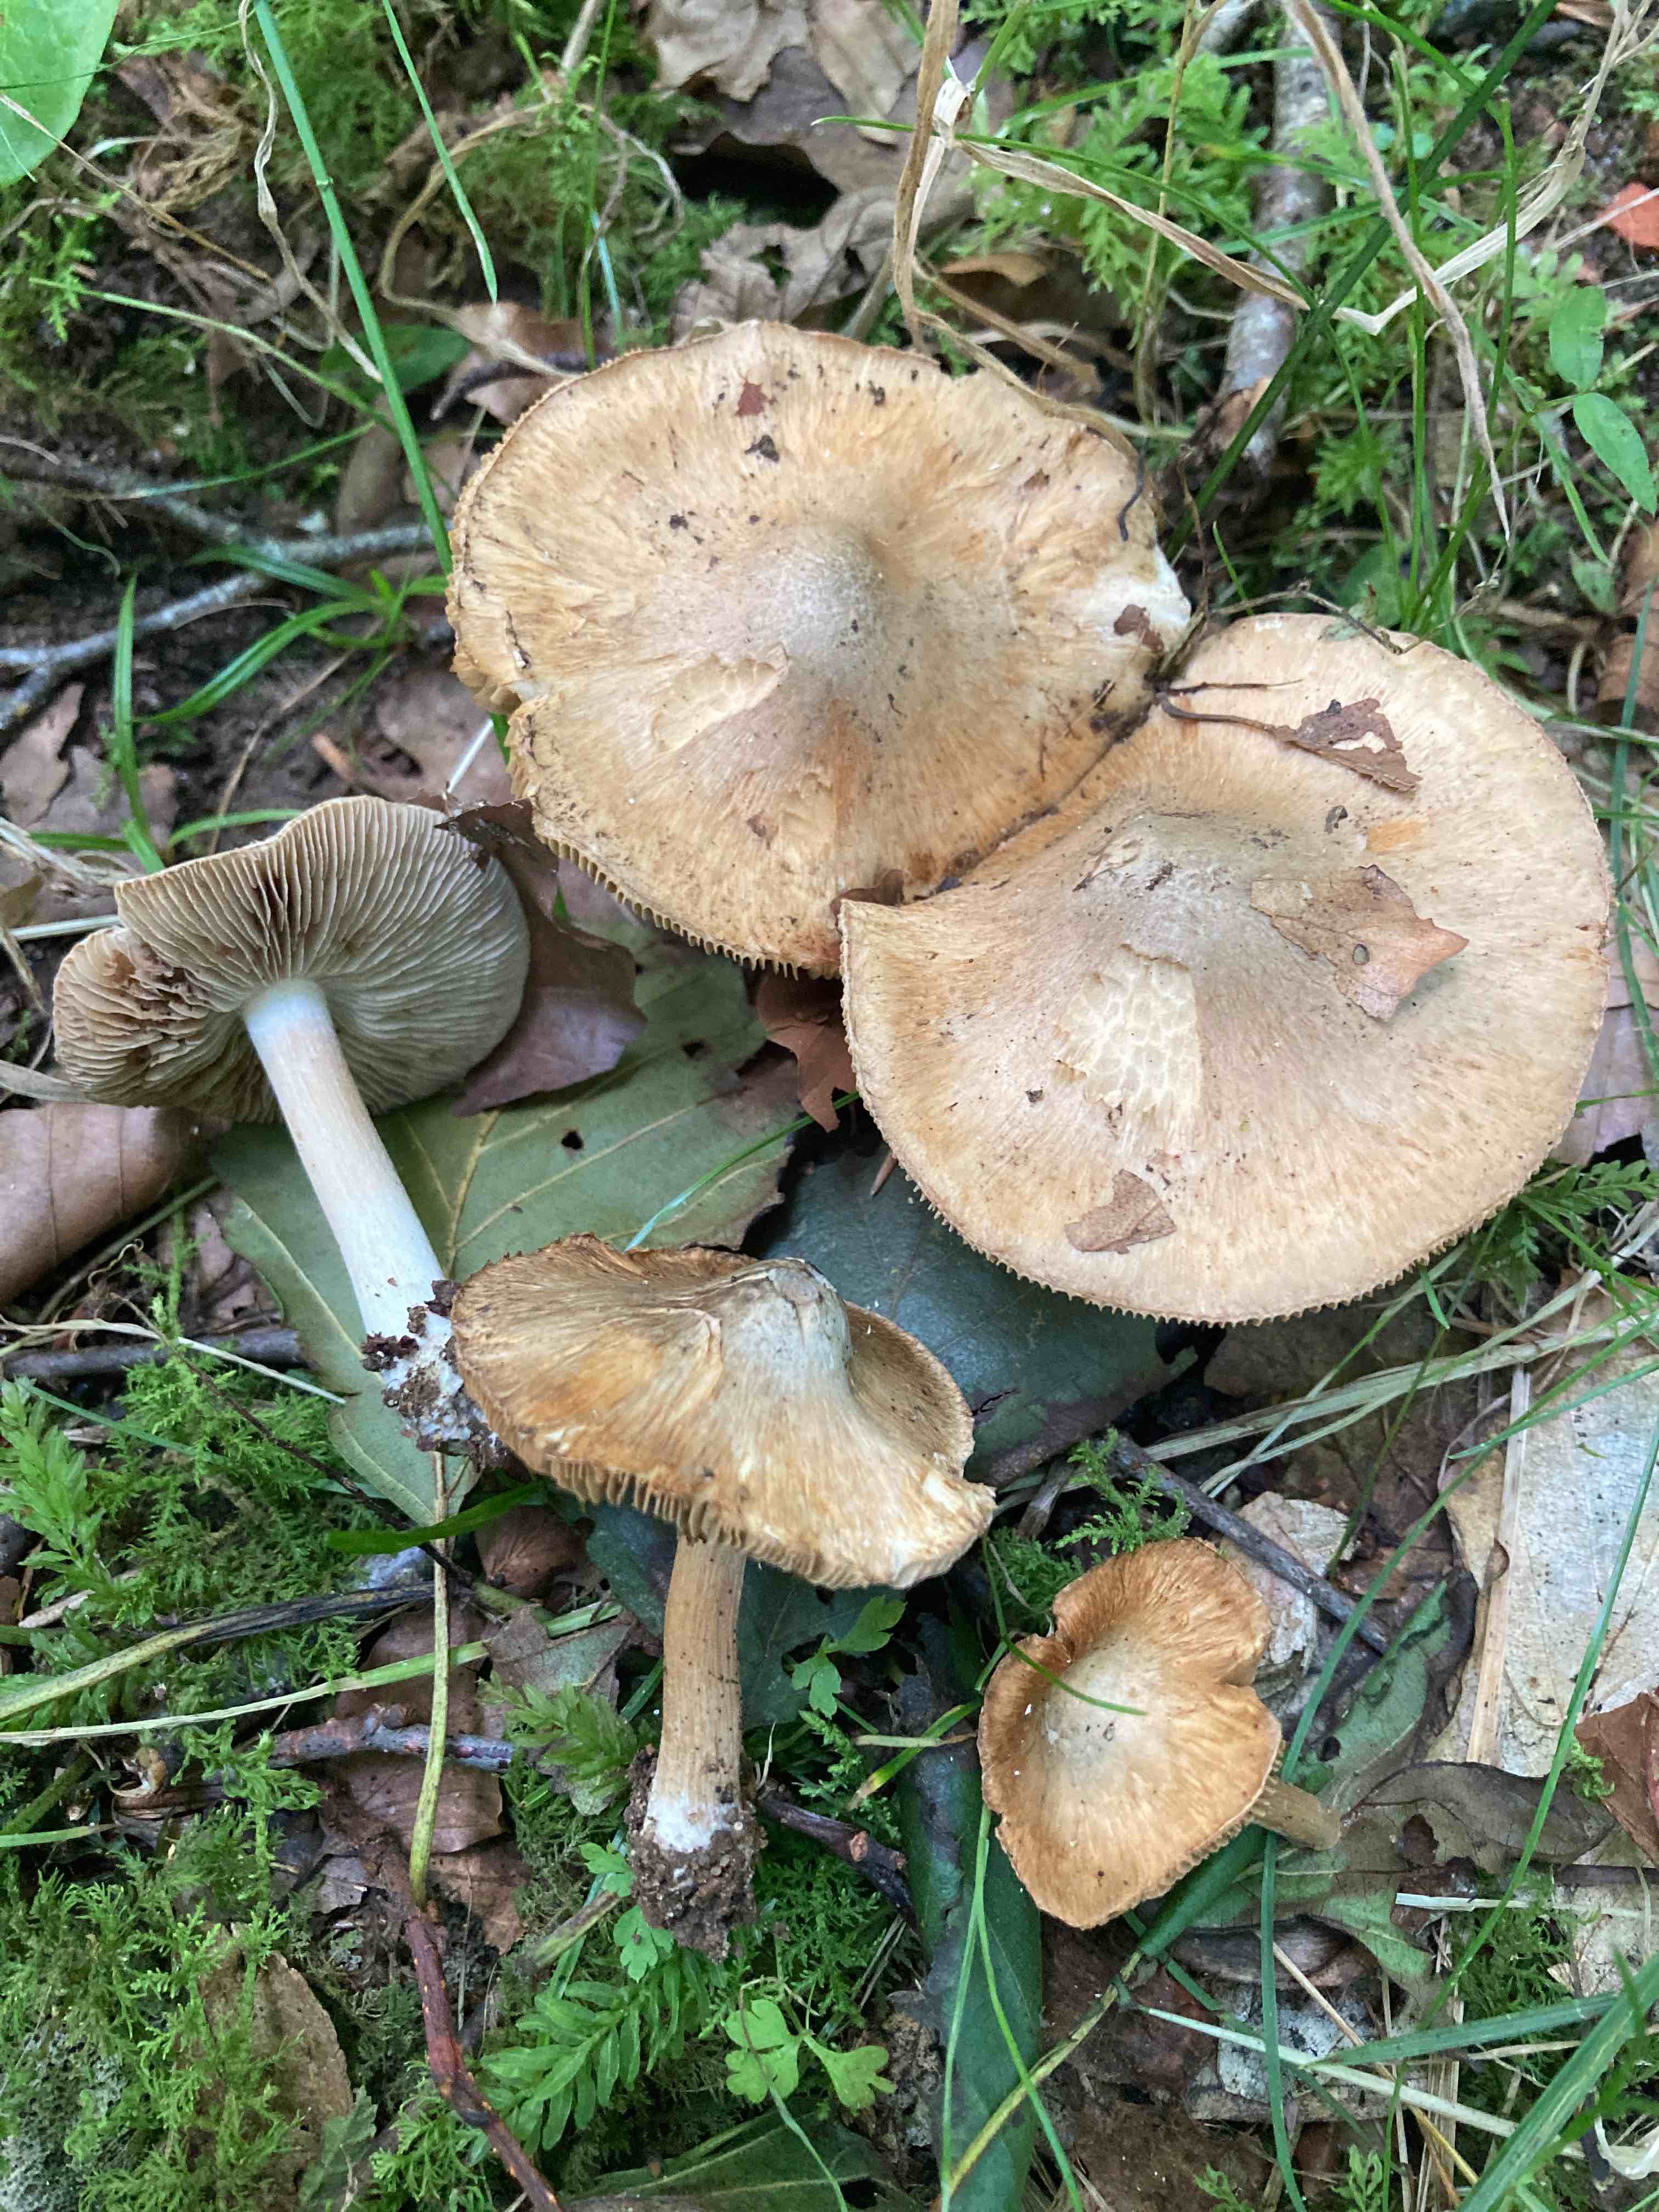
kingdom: Fungi
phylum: Basidiomycota
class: Agaricomycetes
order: Agaricales
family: Inocybaceae
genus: Inocybe
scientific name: Inocybe corydalina
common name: grønpuklet trævlhat
